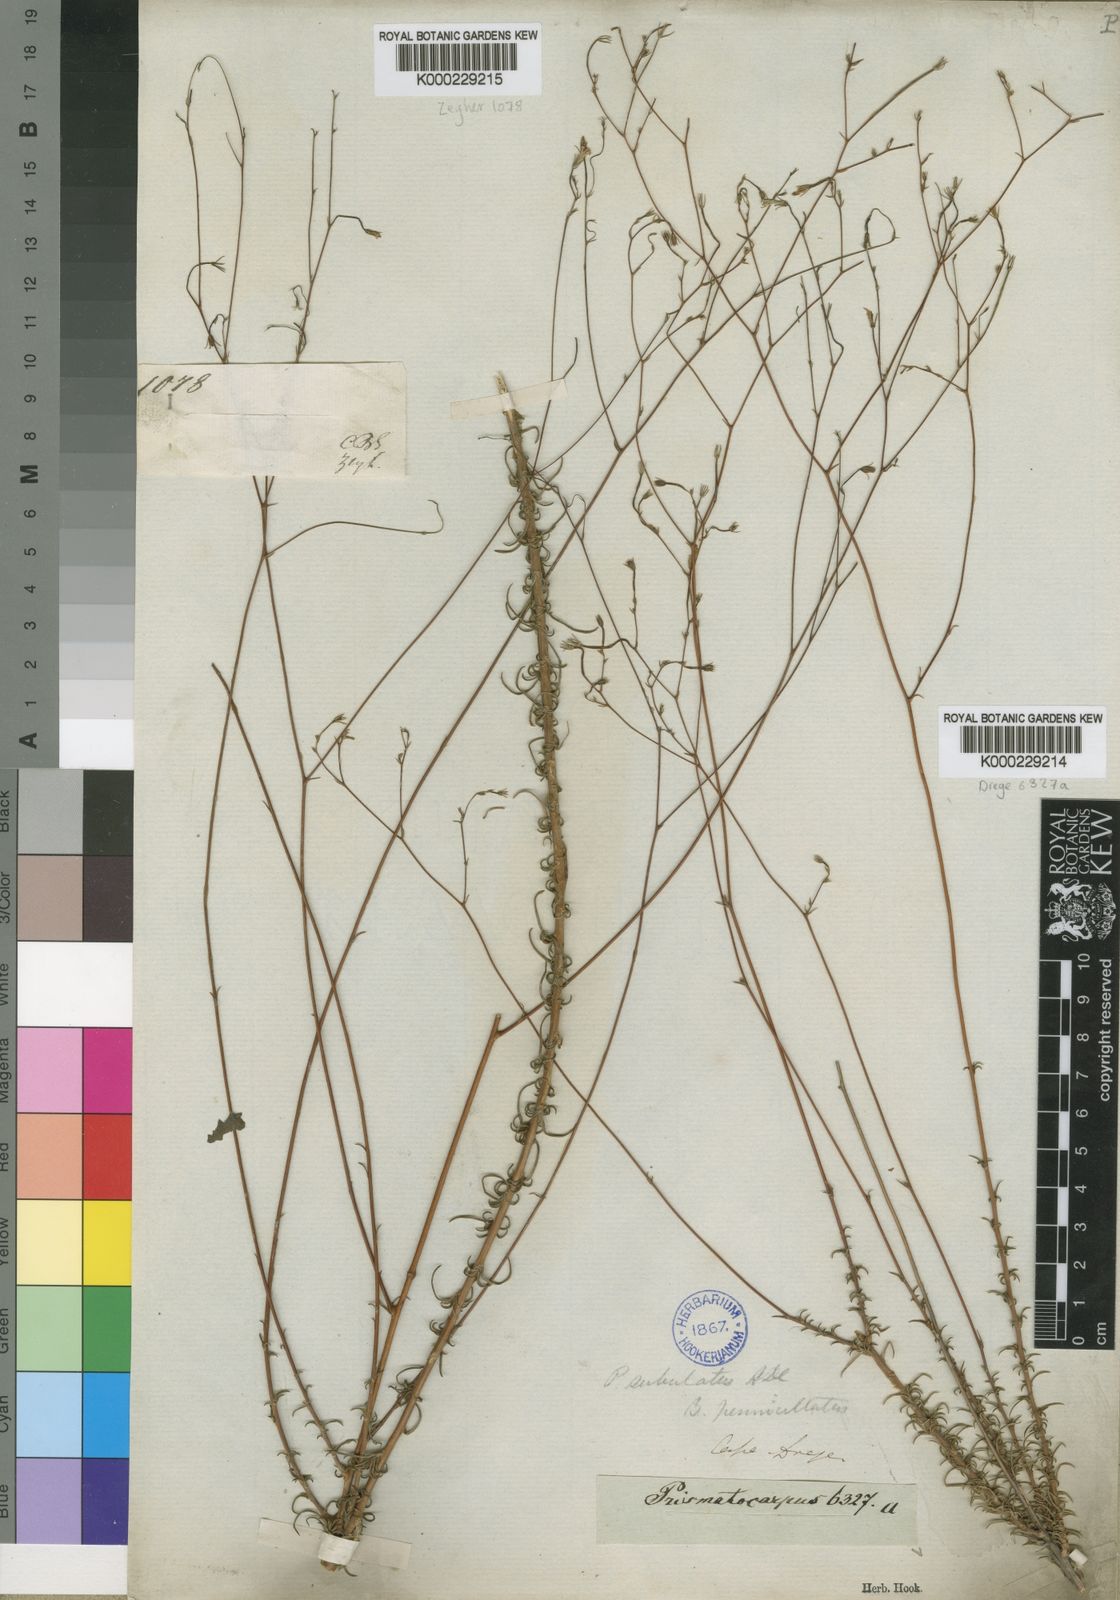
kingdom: Plantae
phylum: Tracheophyta
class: Magnoliopsida
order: Asterales
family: Campanulaceae
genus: Prismatocarpus
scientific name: Prismatocarpus fruticosus
